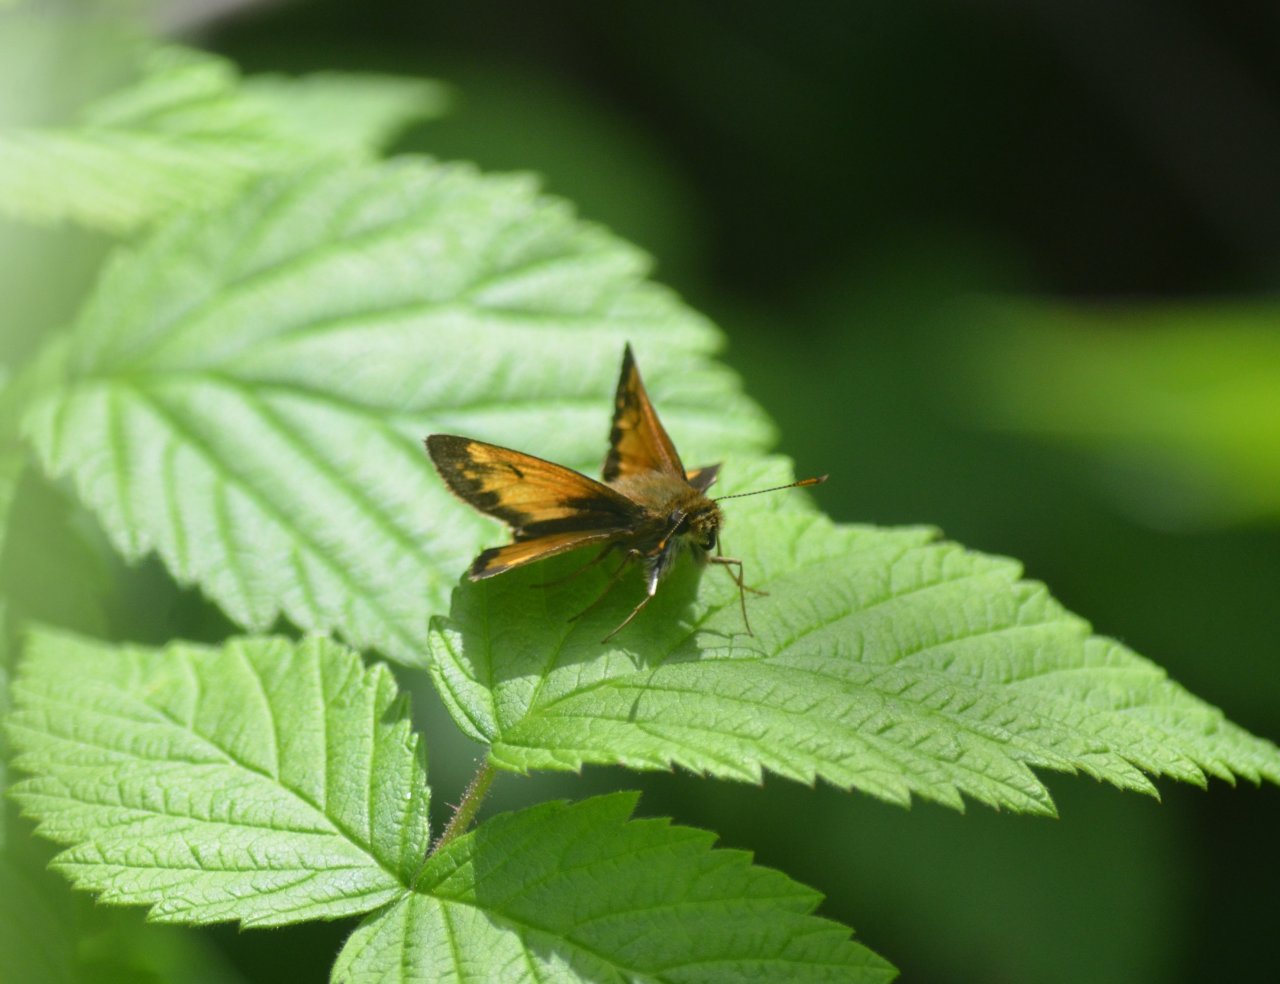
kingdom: Animalia
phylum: Arthropoda
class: Insecta
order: Lepidoptera
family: Hesperiidae
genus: Lon
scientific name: Lon hobomok
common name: Hobomok Skipper
